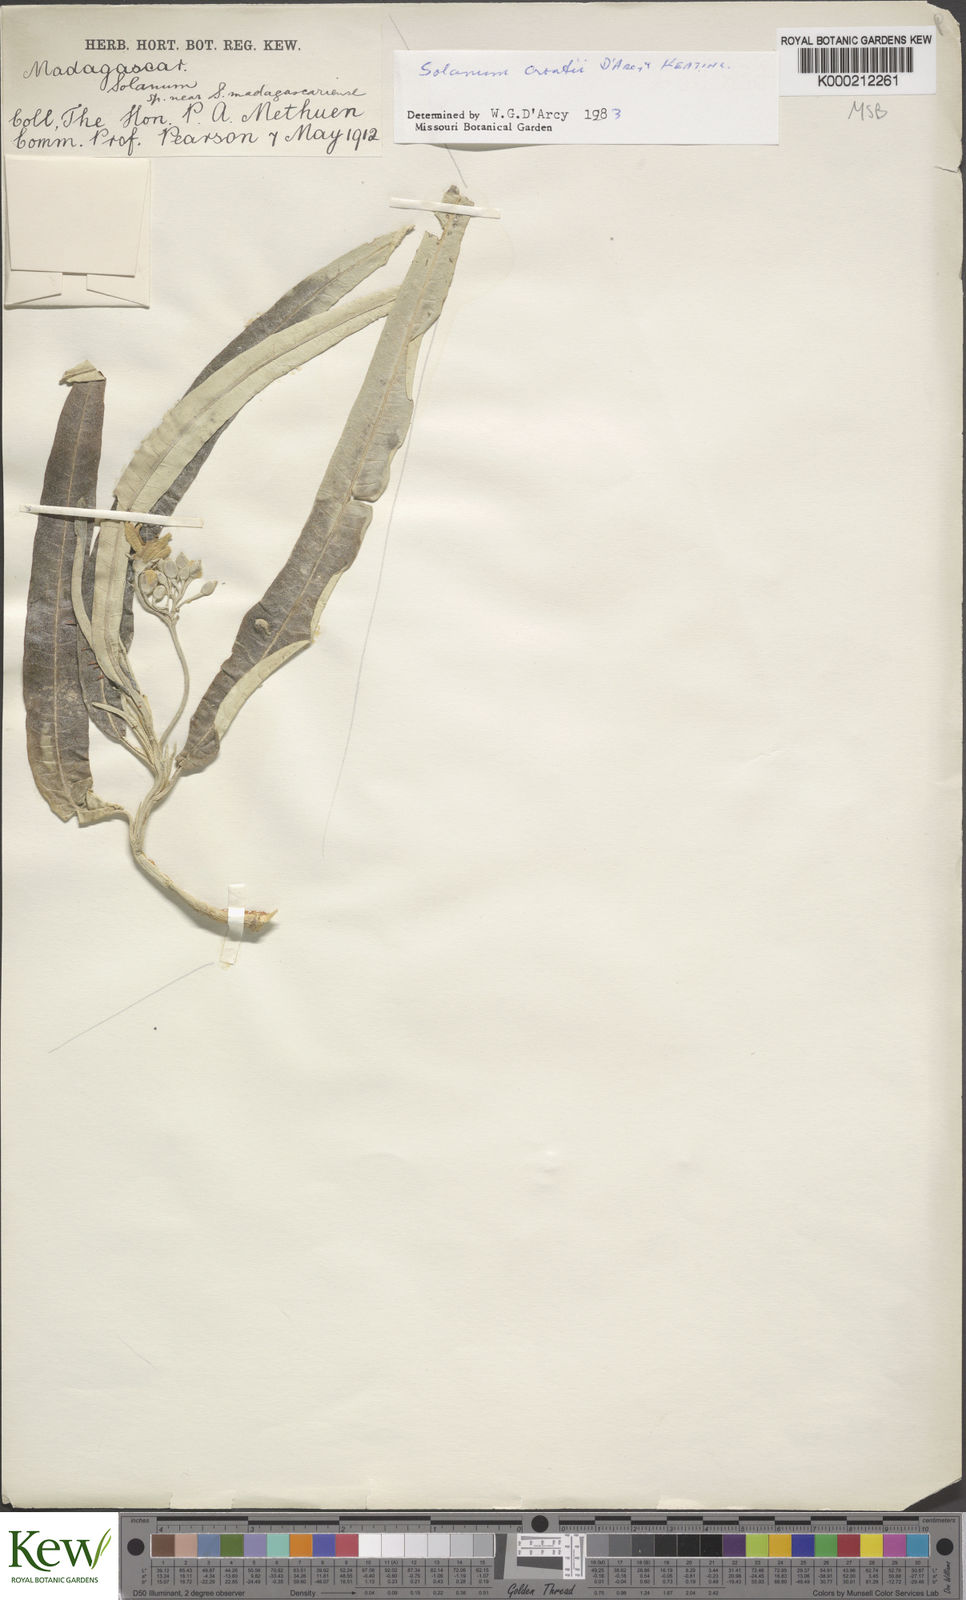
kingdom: Plantae
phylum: Tracheophyta
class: Magnoliopsida
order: Solanales
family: Solanaceae
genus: Solanum
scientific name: Solanum croatii
